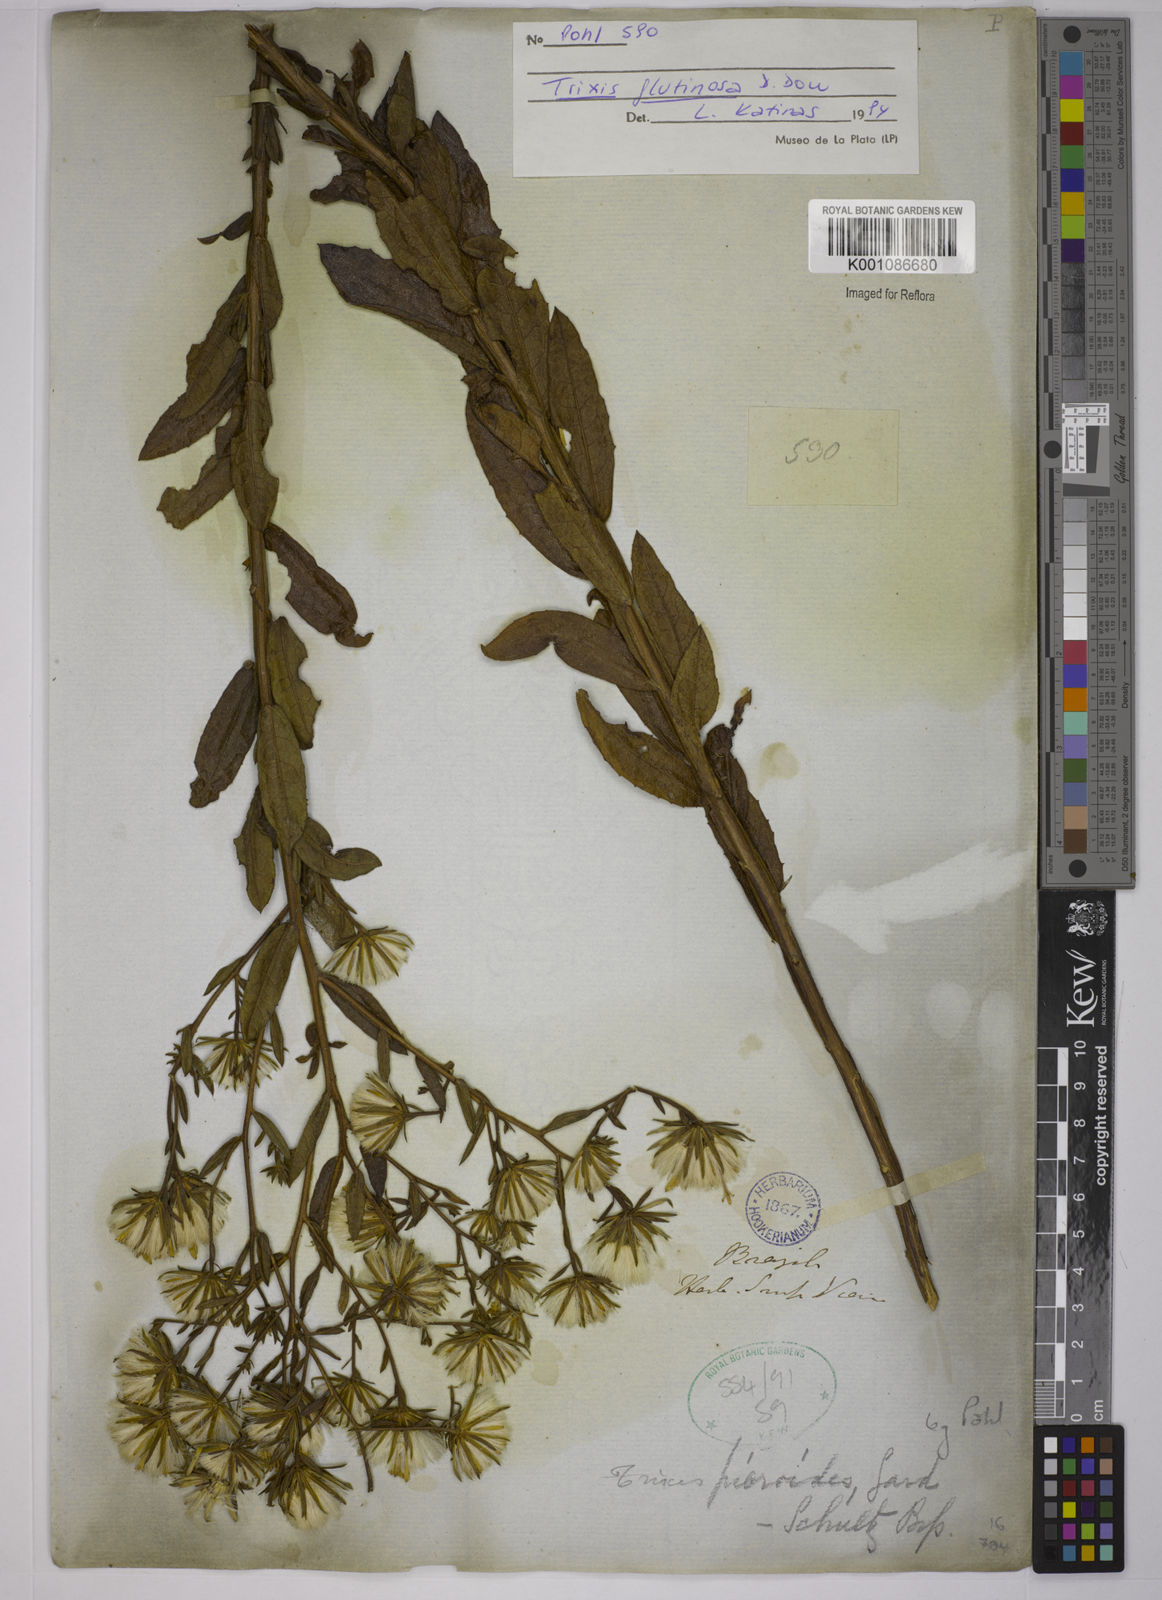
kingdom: Plantae
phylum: Tracheophyta
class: Magnoliopsida
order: Asterales
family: Asteraceae
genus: Trixis
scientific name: Trixis glutinosa
